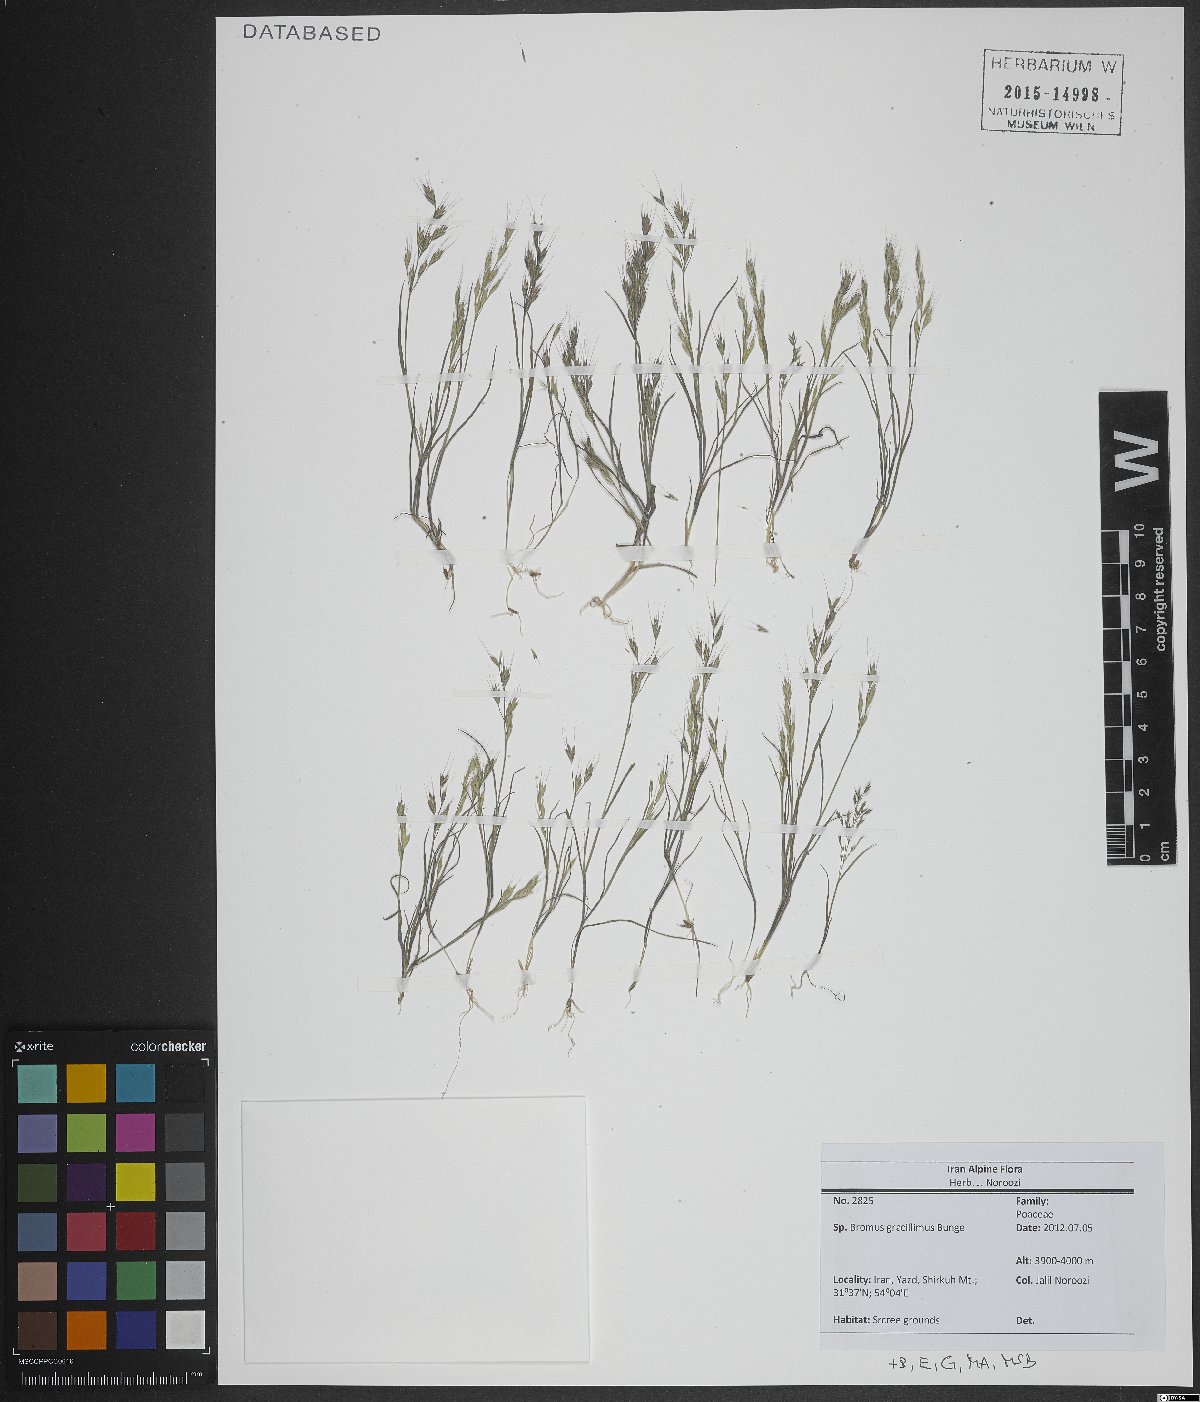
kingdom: Plantae
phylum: Tracheophyta
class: Liliopsida
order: Poales
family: Poaceae
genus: Bromus
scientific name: Bromus gracillimus
